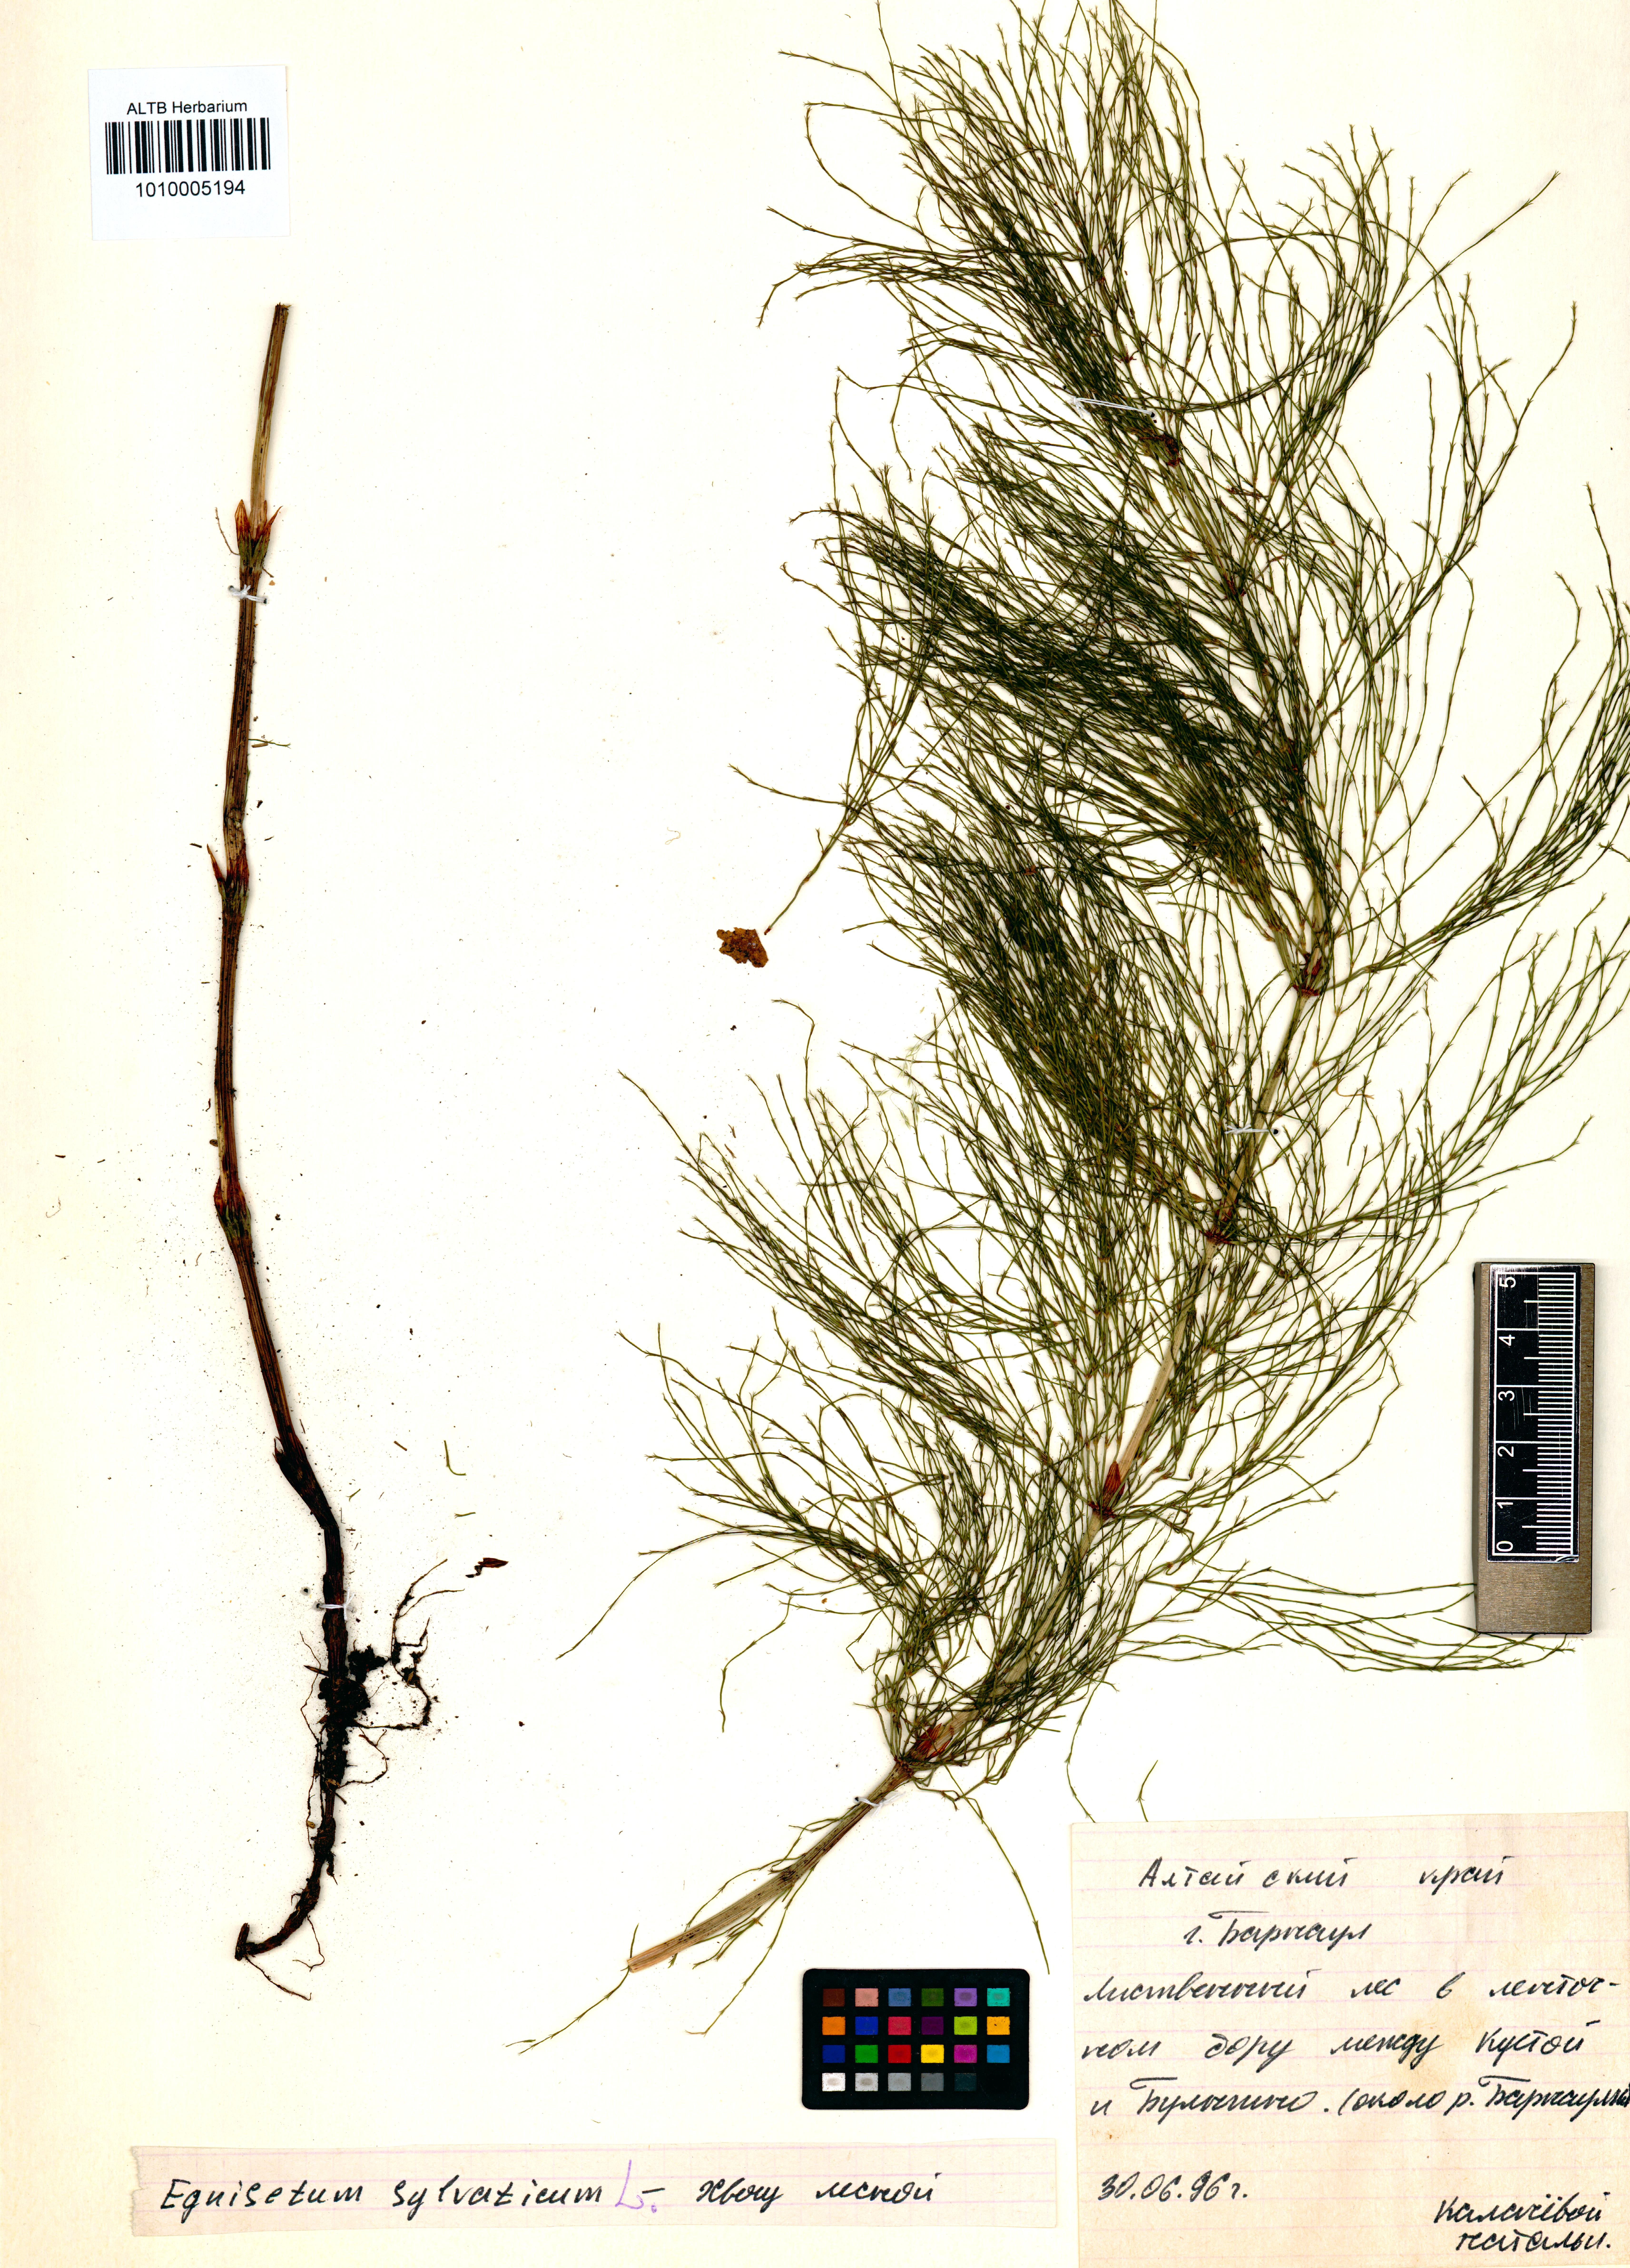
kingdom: Plantae
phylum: Tracheophyta
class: Polypodiopsida
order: Equisetales
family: Equisetaceae
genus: Equisetum
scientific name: Equisetum sylvaticum
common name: Wood horsetail
